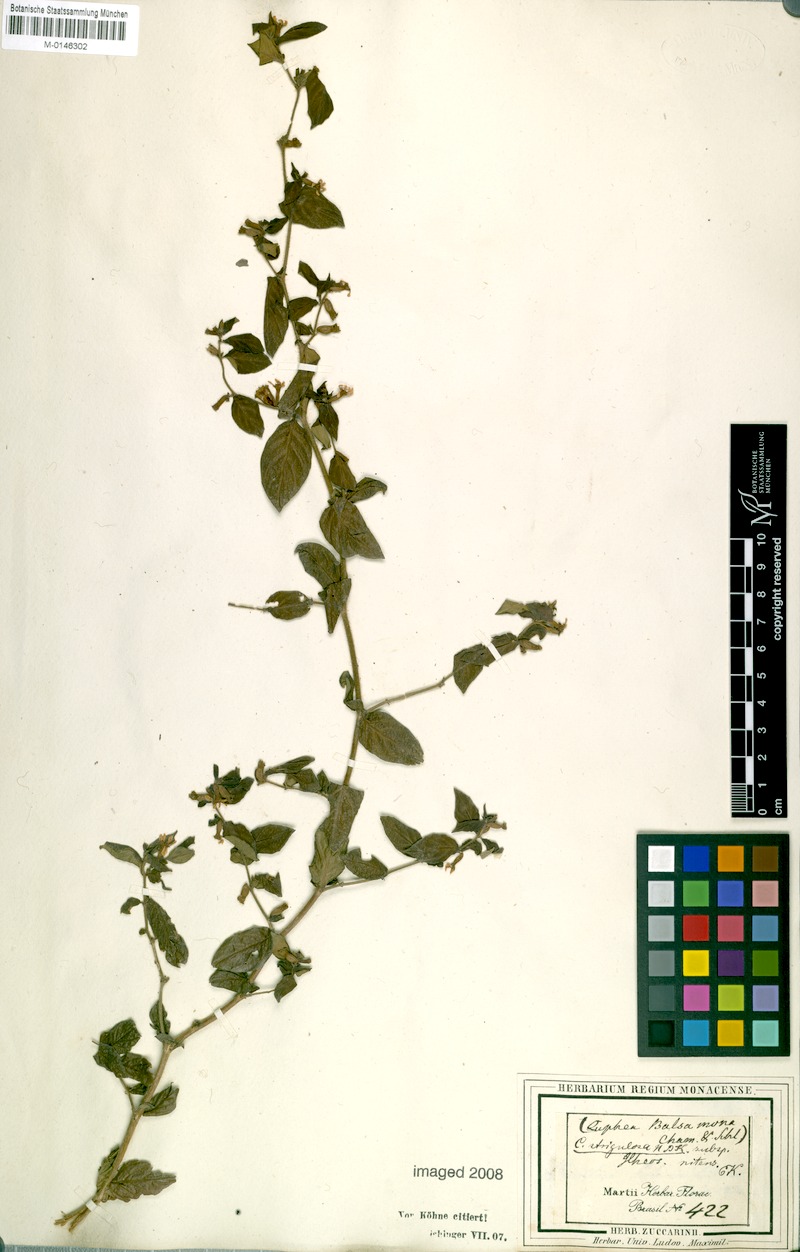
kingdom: Plantae
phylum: Tracheophyta
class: Magnoliopsida
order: Myrtales
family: Lythraceae
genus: Cuphea
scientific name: Cuphea strigulosa
